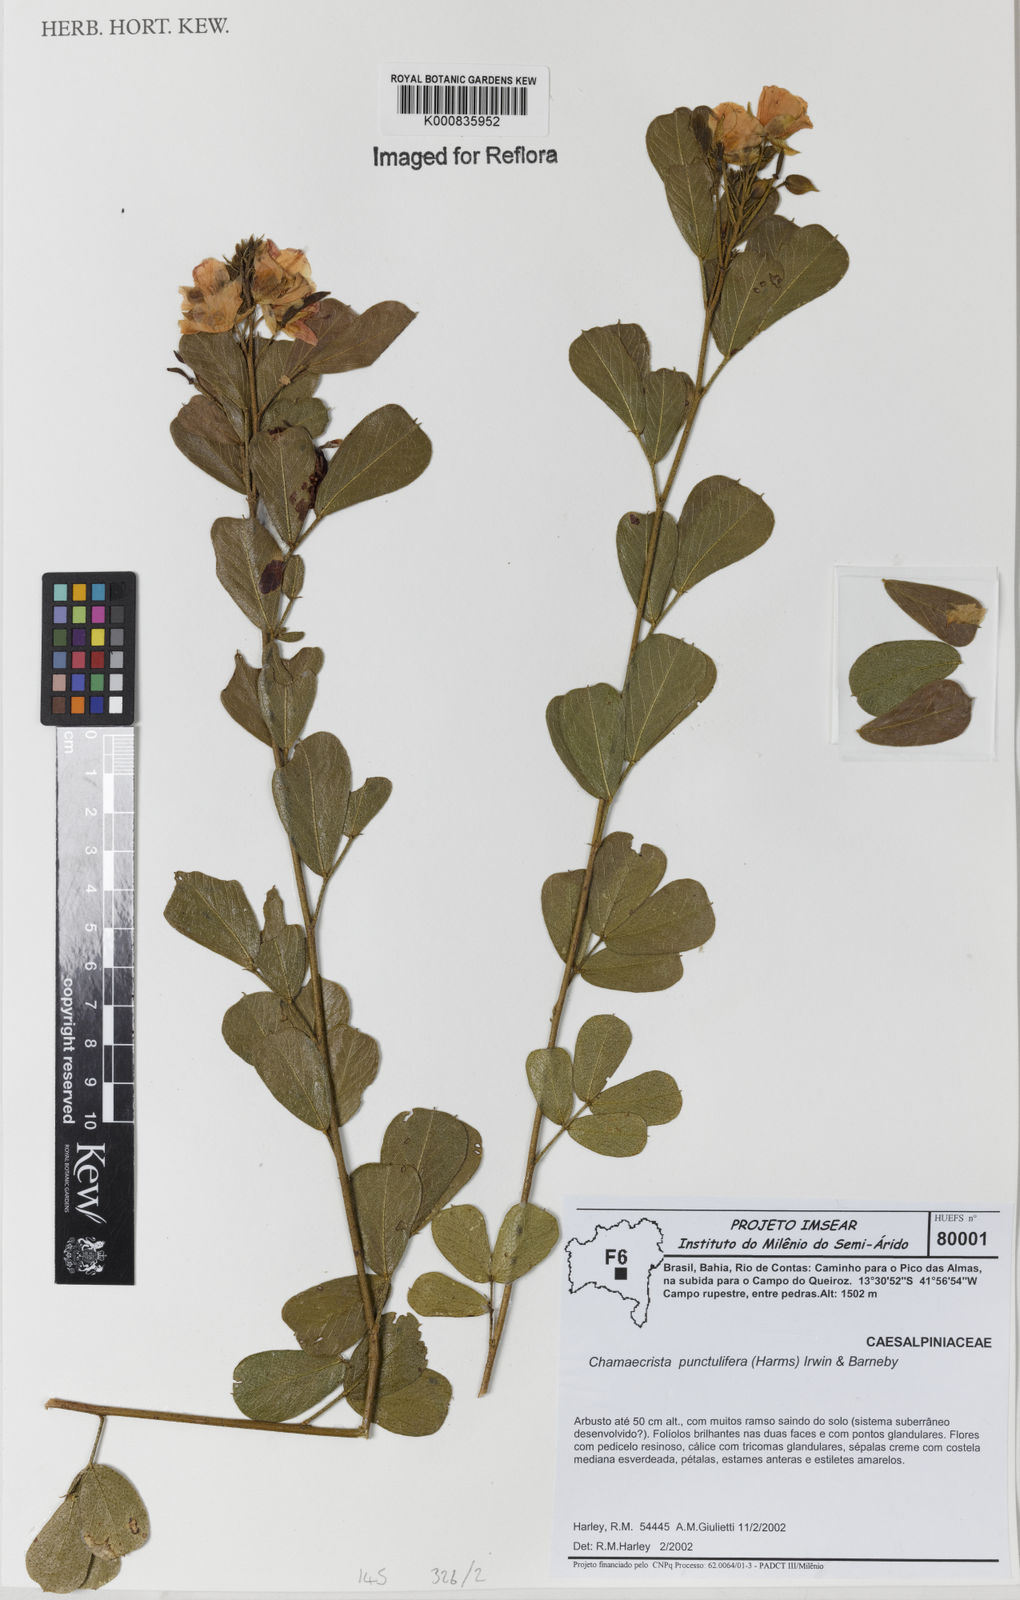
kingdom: Plantae
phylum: Tracheophyta
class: Magnoliopsida
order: Fabales
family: Fabaceae
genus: Chamaecrista
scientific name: Chamaecrista punctulifera
